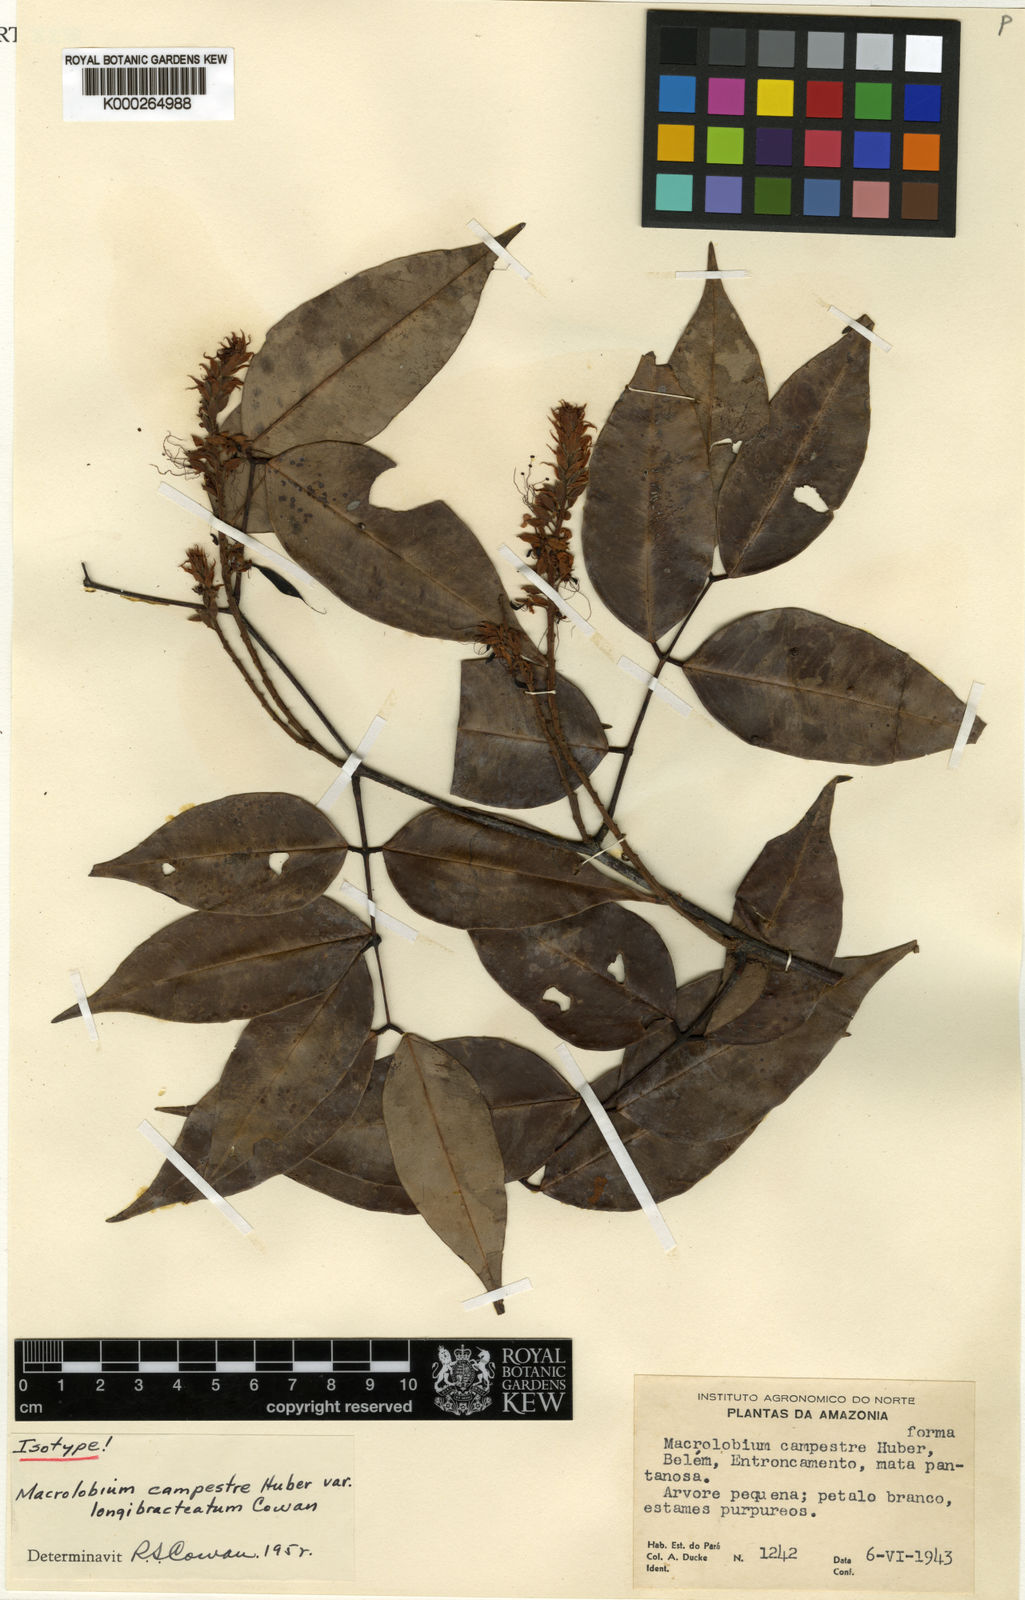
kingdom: Plantae
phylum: Tracheophyta
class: Magnoliopsida
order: Fabales
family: Fabaceae
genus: Macrolobium
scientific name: Macrolobium campestre
